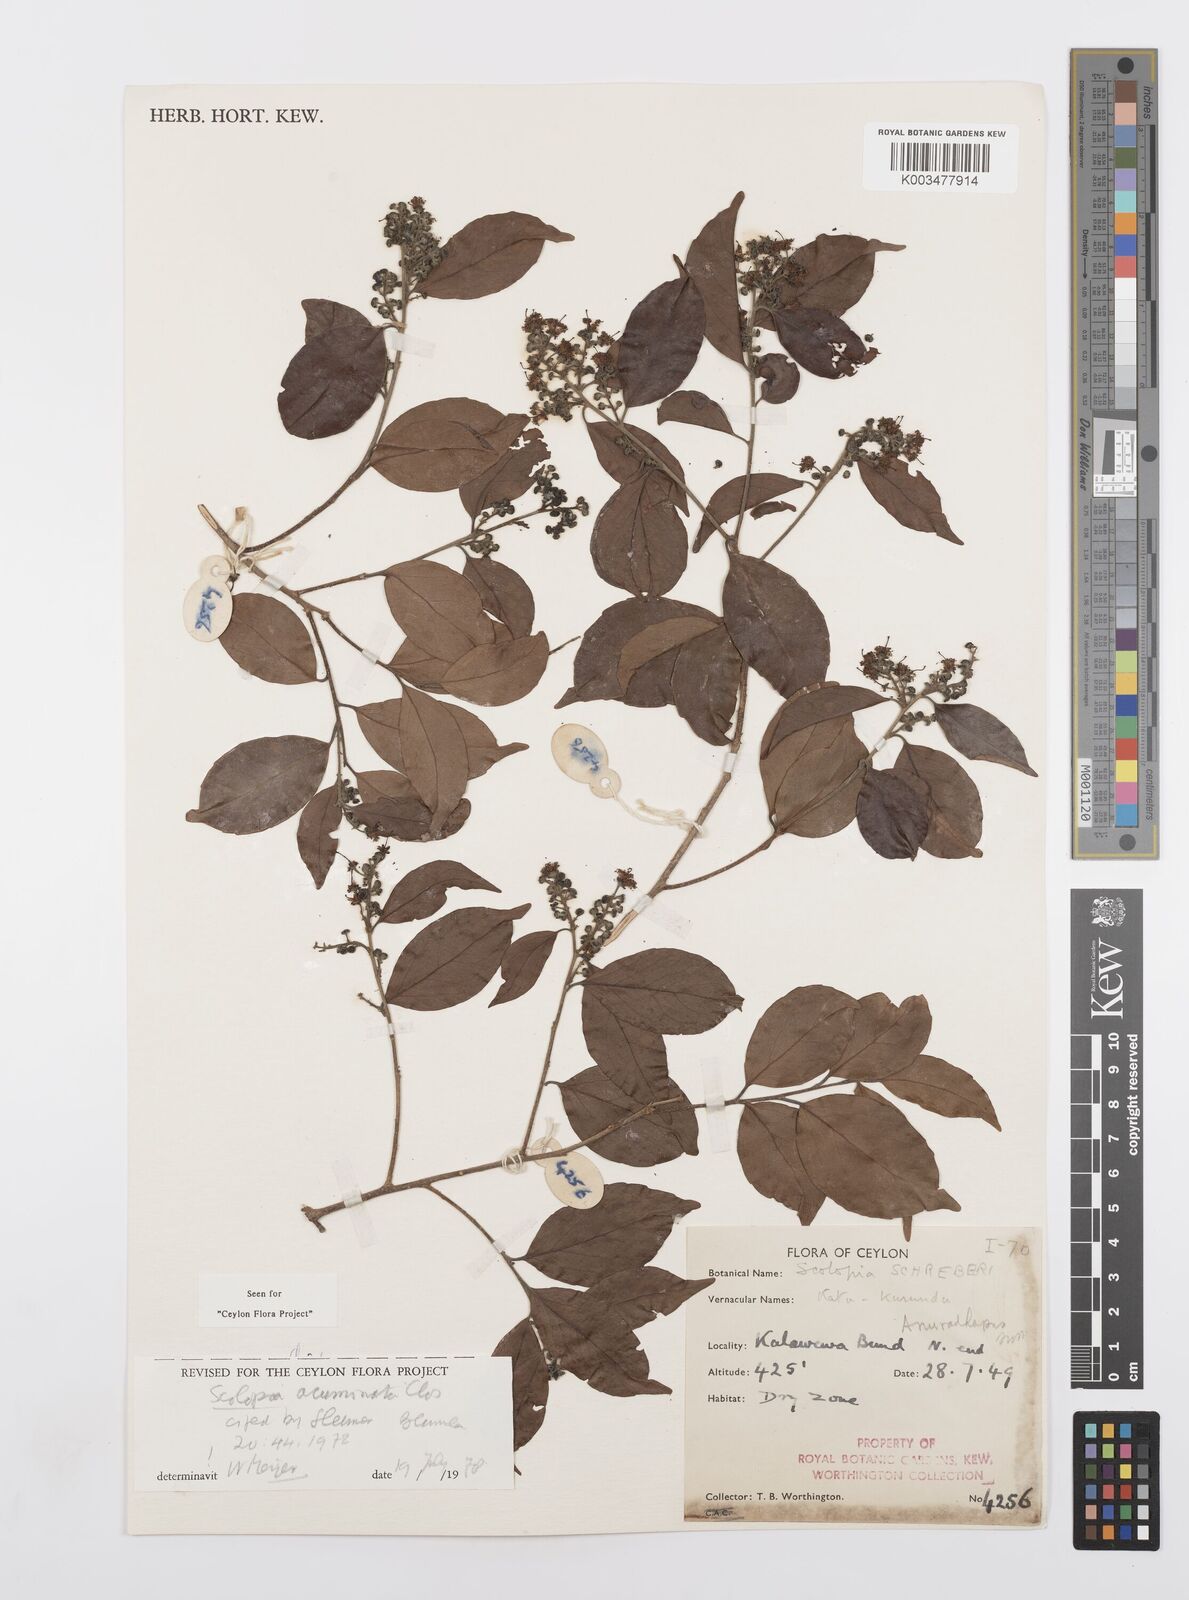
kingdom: Plantae
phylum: Tracheophyta
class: Magnoliopsida
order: Malpighiales
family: Salicaceae
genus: Scolopia
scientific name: Scolopia acuminata
